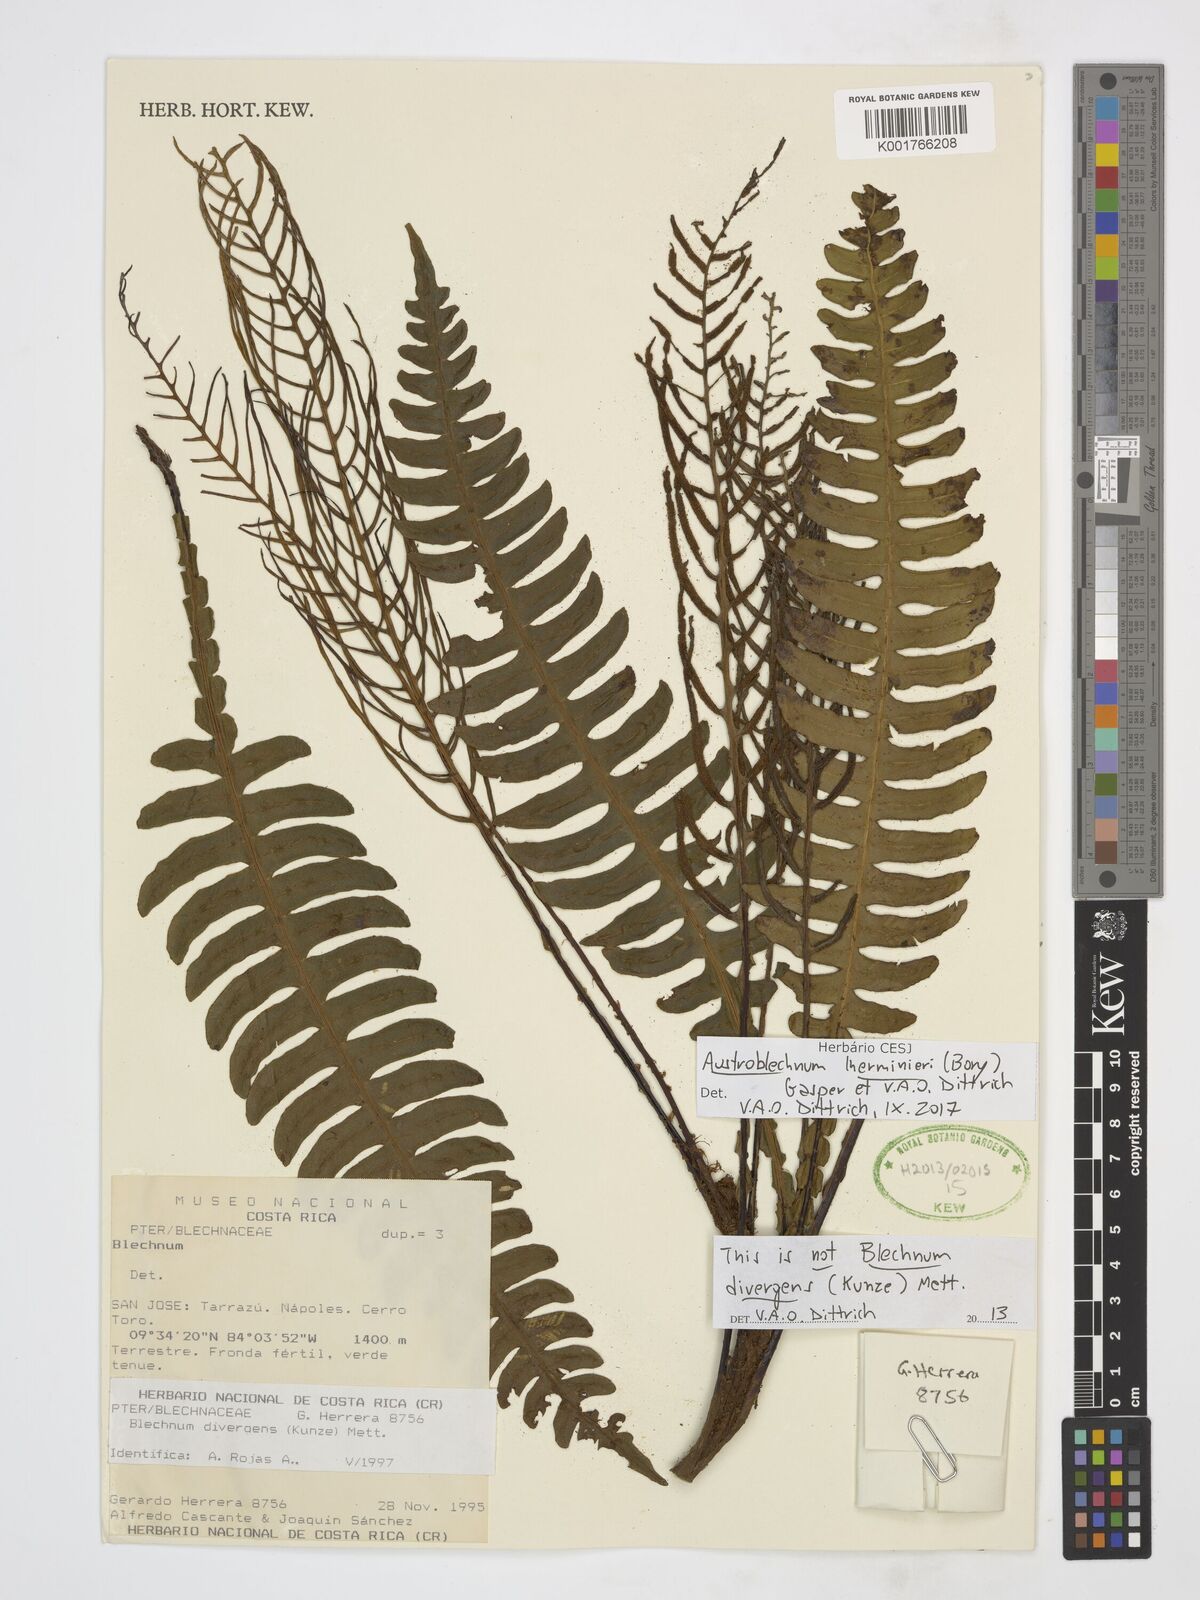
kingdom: Plantae
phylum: Tracheophyta
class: Polypodiopsida
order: Polypodiales
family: Blechnaceae
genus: Austroblechnum
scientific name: Austroblechnum lherminieri
